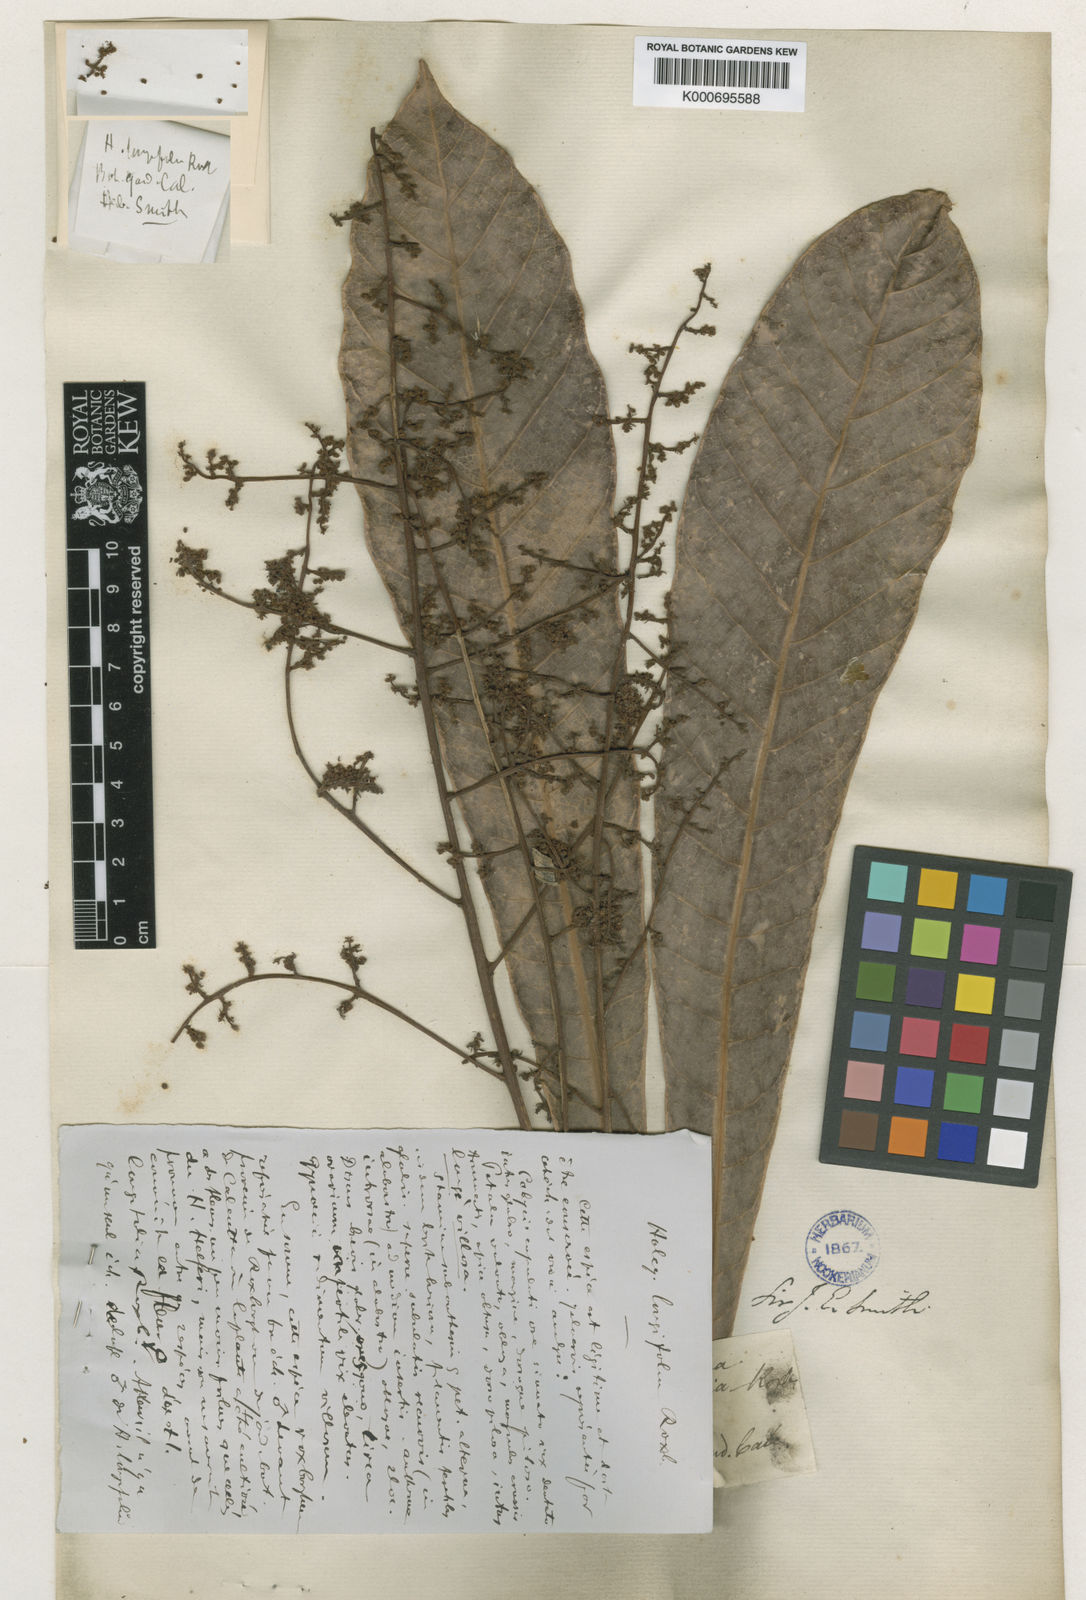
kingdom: Plantae
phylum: Tracheophyta
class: Magnoliopsida
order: Sapindales
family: Anacardiaceae
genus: Holigarna
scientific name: Holigarna caustica
